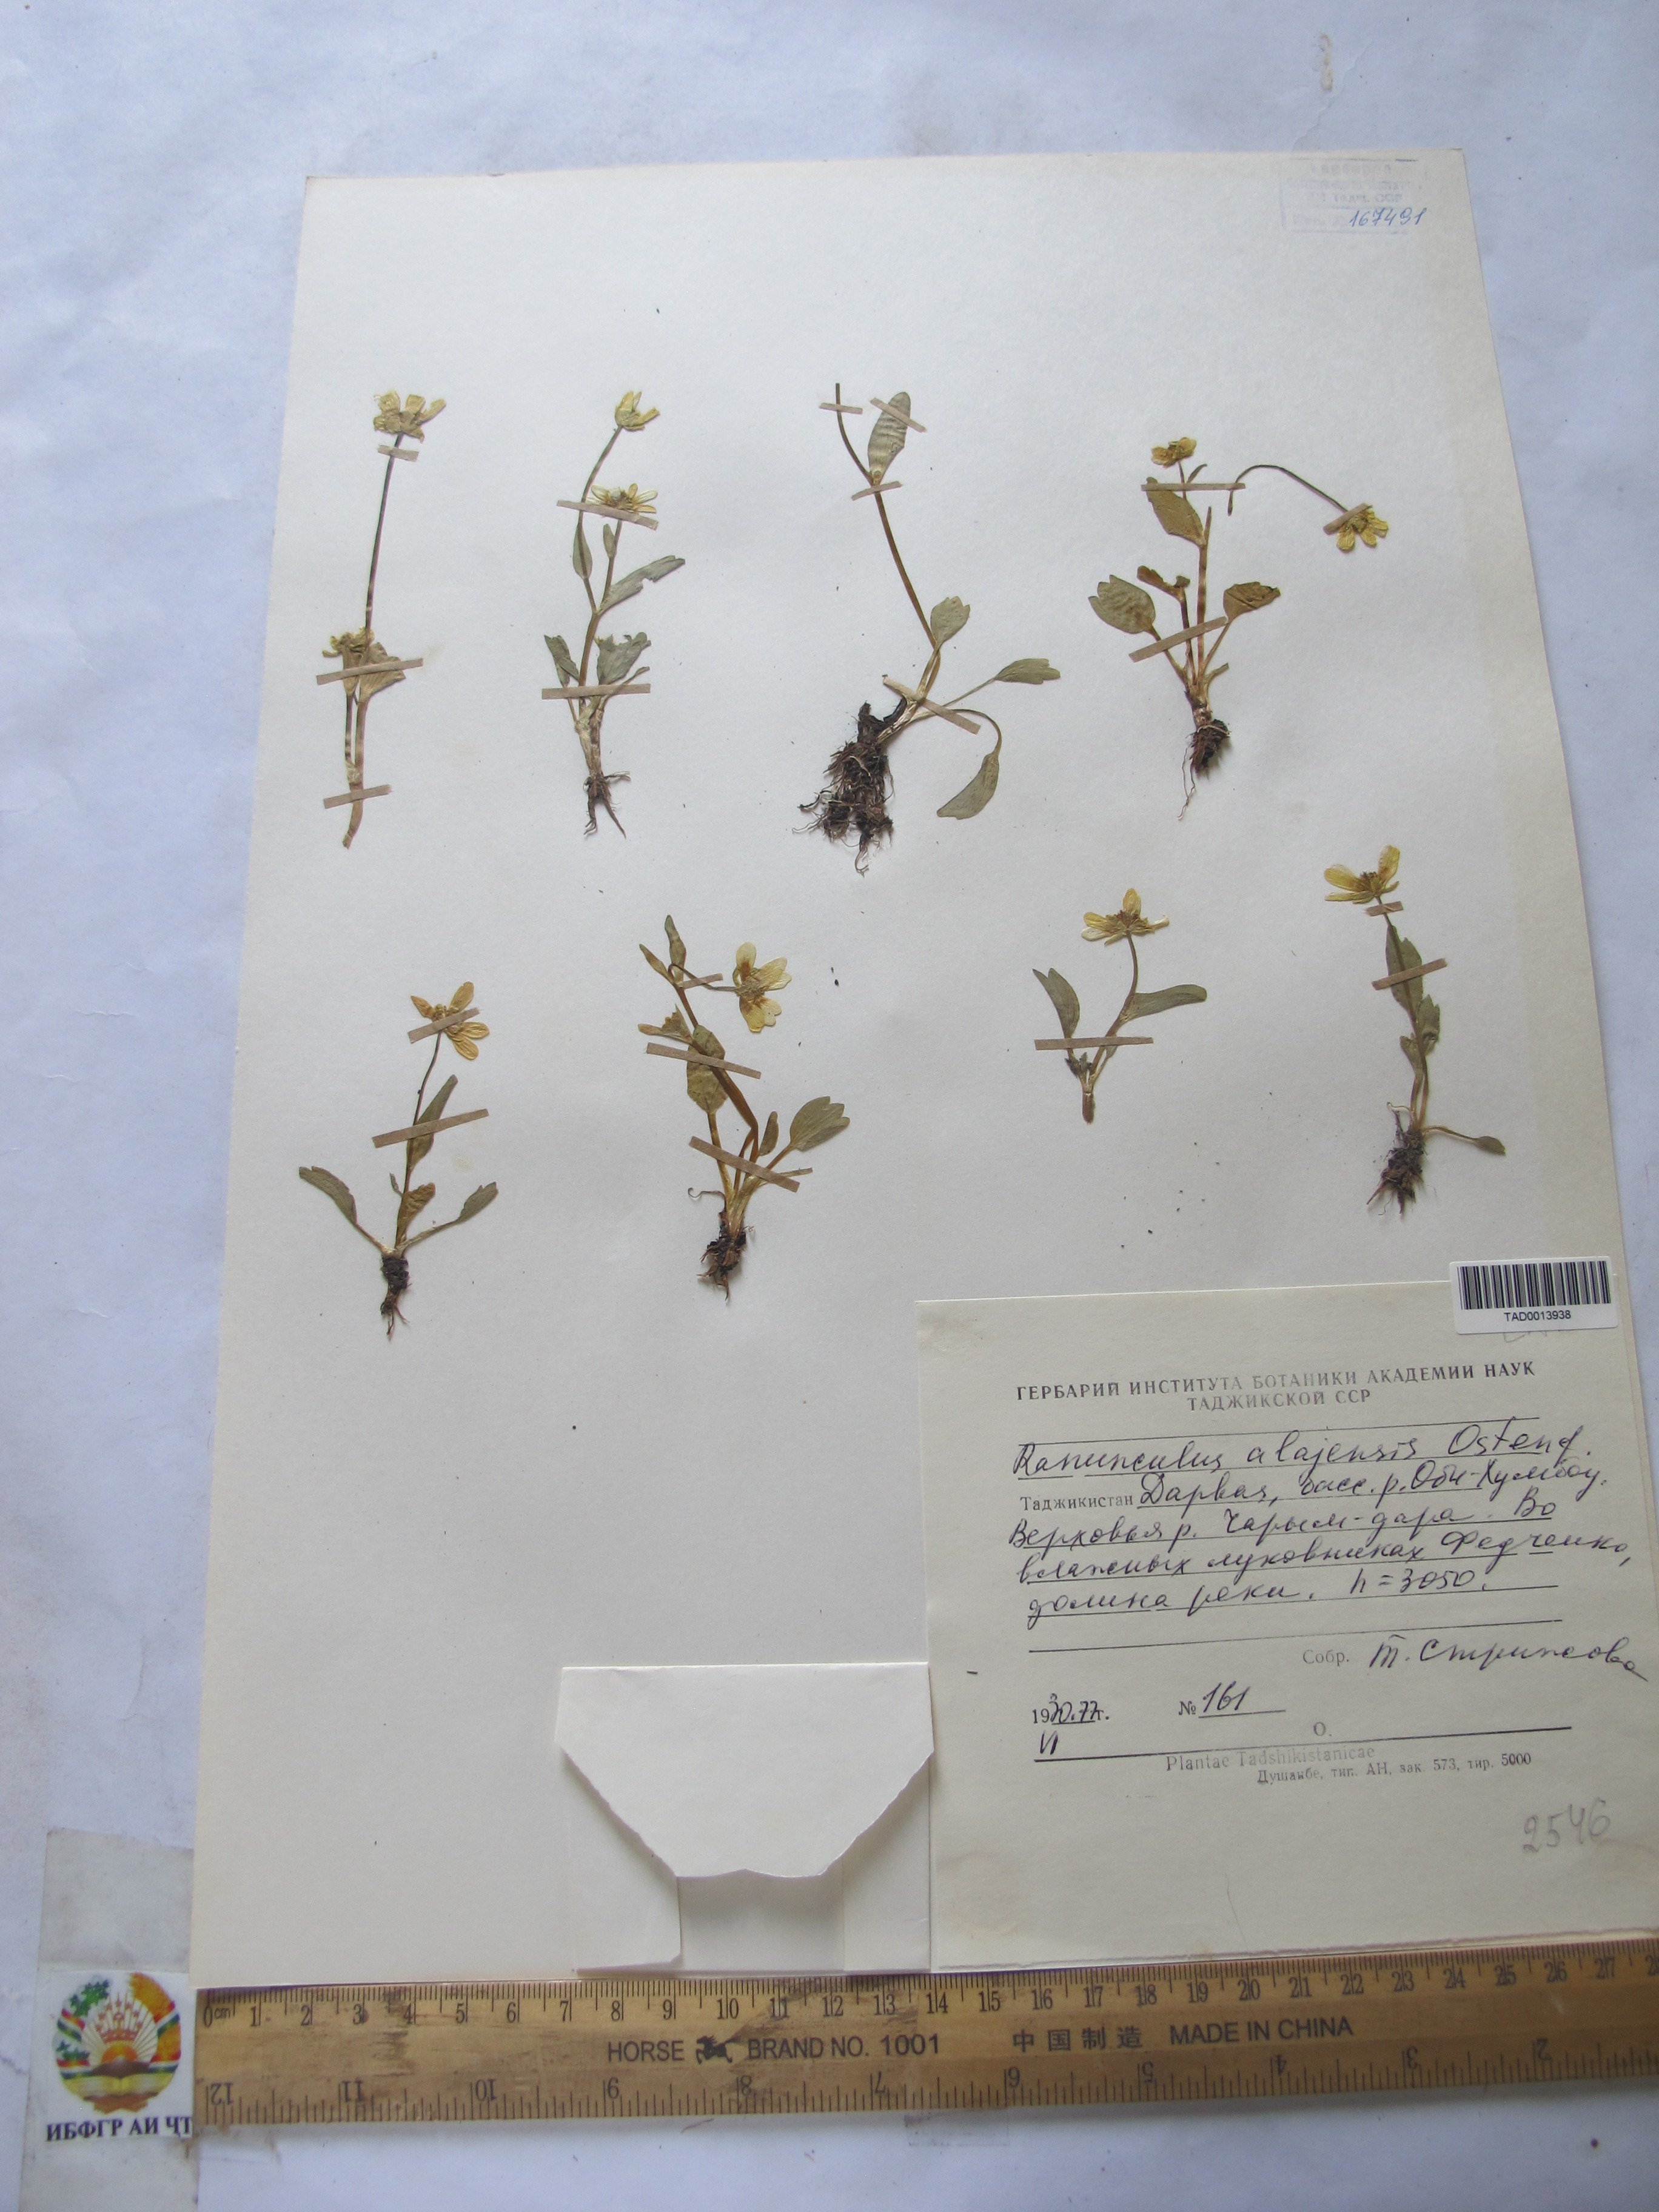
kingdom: Plantae
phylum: Tracheophyta
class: Magnoliopsida
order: Ranunculales
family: Ranunculaceae
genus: Ranunculus
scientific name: Ranunculus alaiensis
